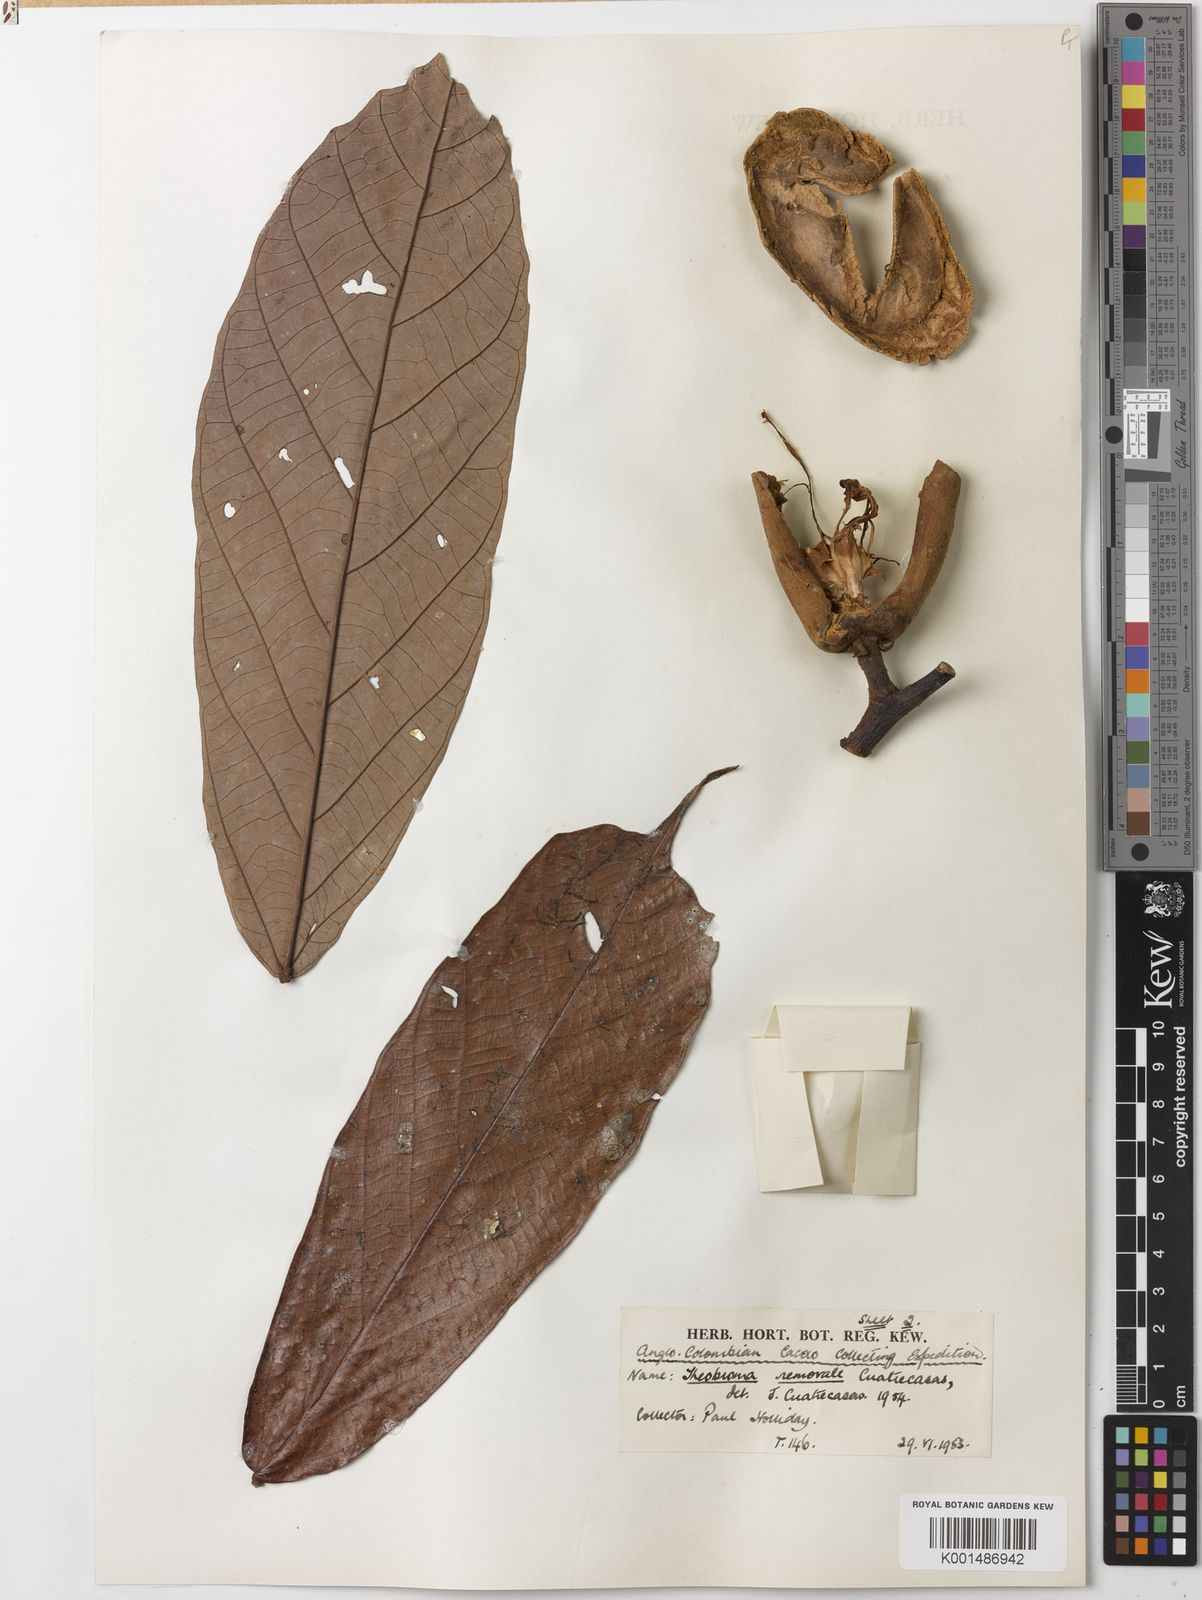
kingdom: Plantae
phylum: Tracheophyta
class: Magnoliopsida
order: Malvales
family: Malvaceae
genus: Theobroma
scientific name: Theobroma nemorale
